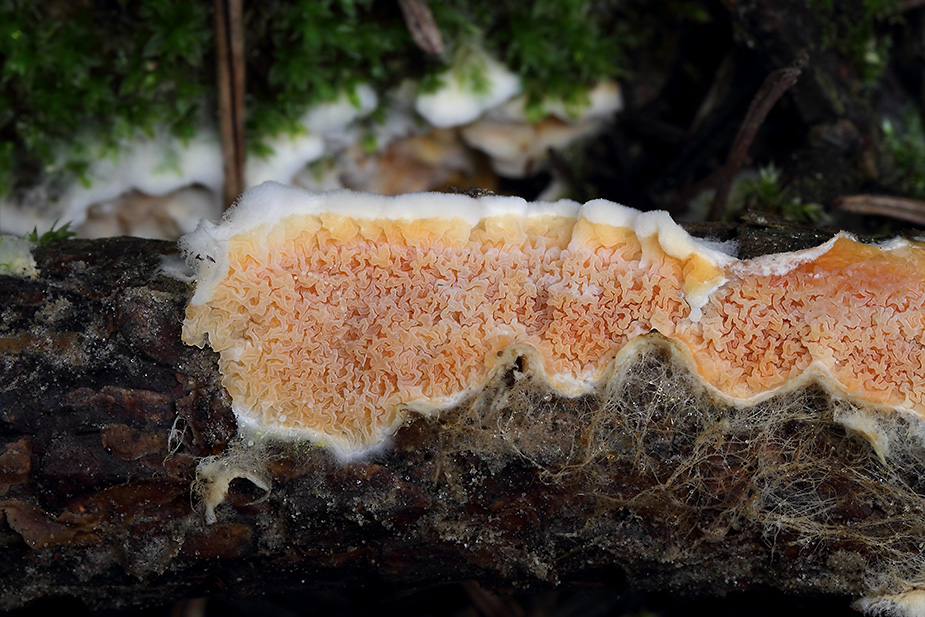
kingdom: Fungi
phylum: Basidiomycota
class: Agaricomycetes
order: Boletales
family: Hygrophoropsidaceae
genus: Leucogyrophana
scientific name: Leucogyrophana mollusca
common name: blød hussvamp
